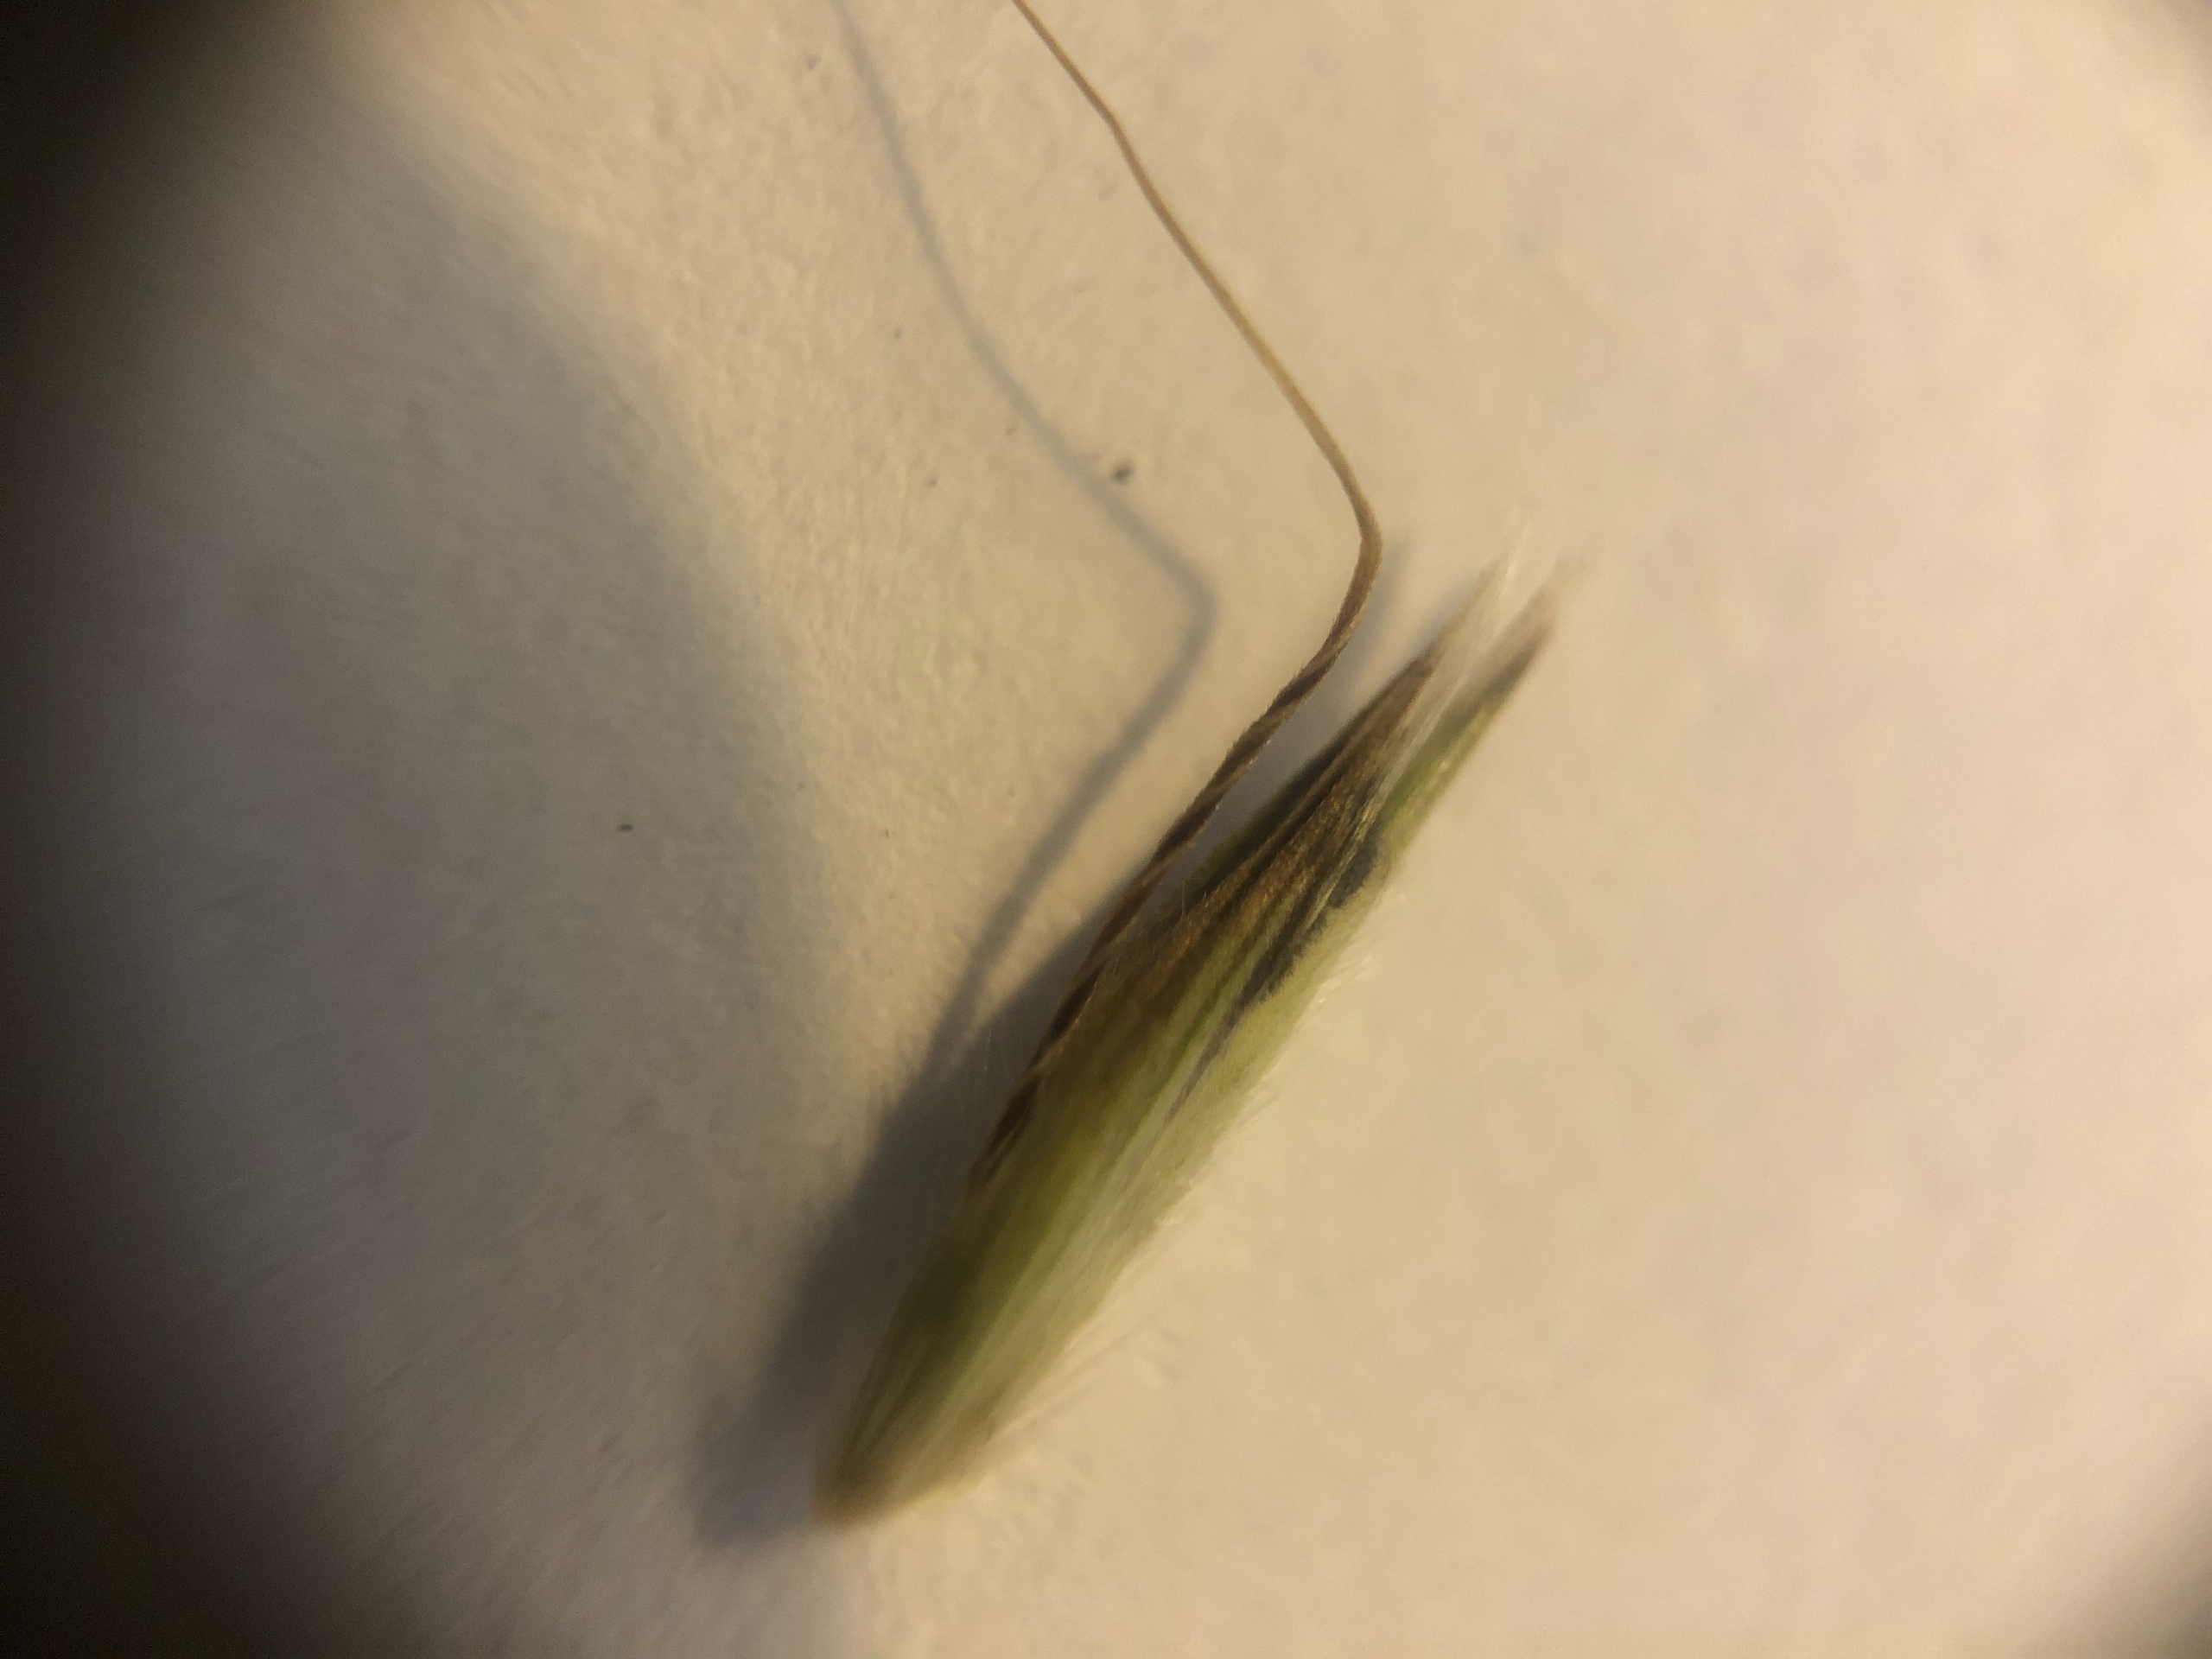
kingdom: Plantae
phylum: Tracheophyta
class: Liliopsida
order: Poales
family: Poaceae
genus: Arrhenatherum
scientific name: Arrhenatherum elatius
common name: Draphavre
